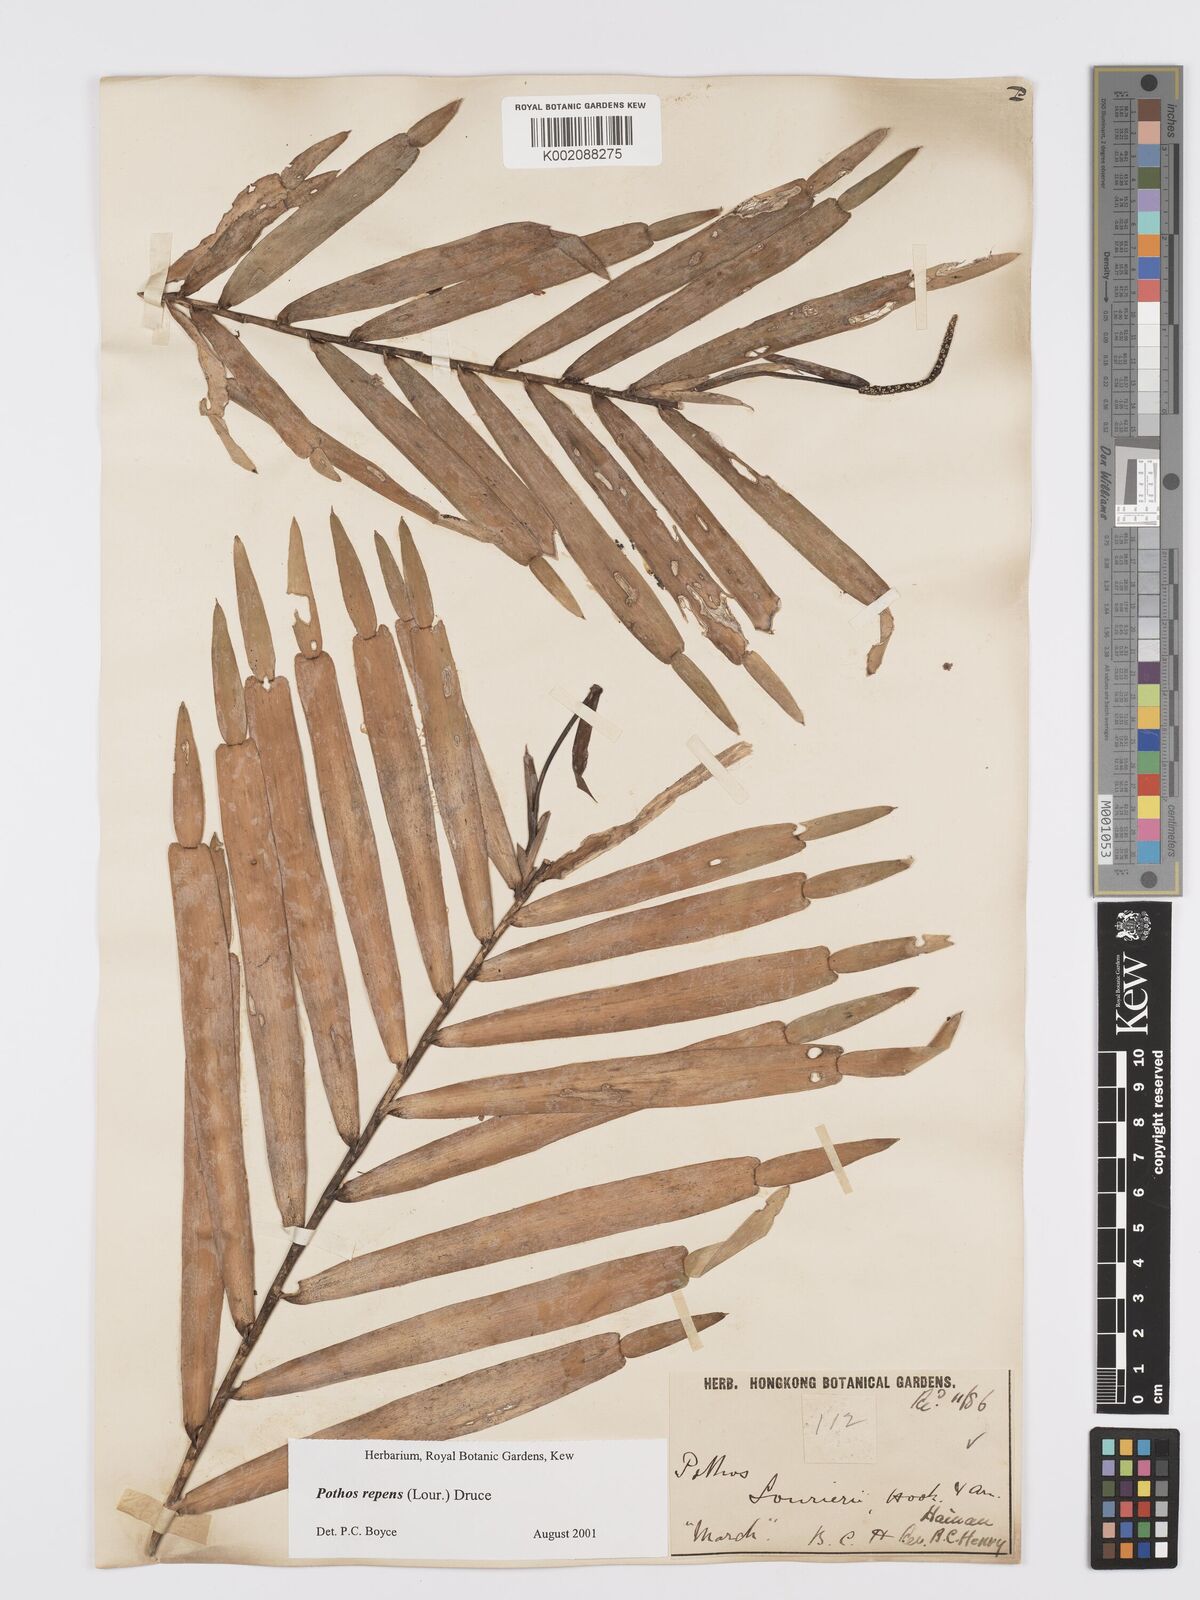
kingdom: Plantae
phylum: Tracheophyta
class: Liliopsida
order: Alismatales
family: Araceae
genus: Pothos
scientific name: Pothos repens
